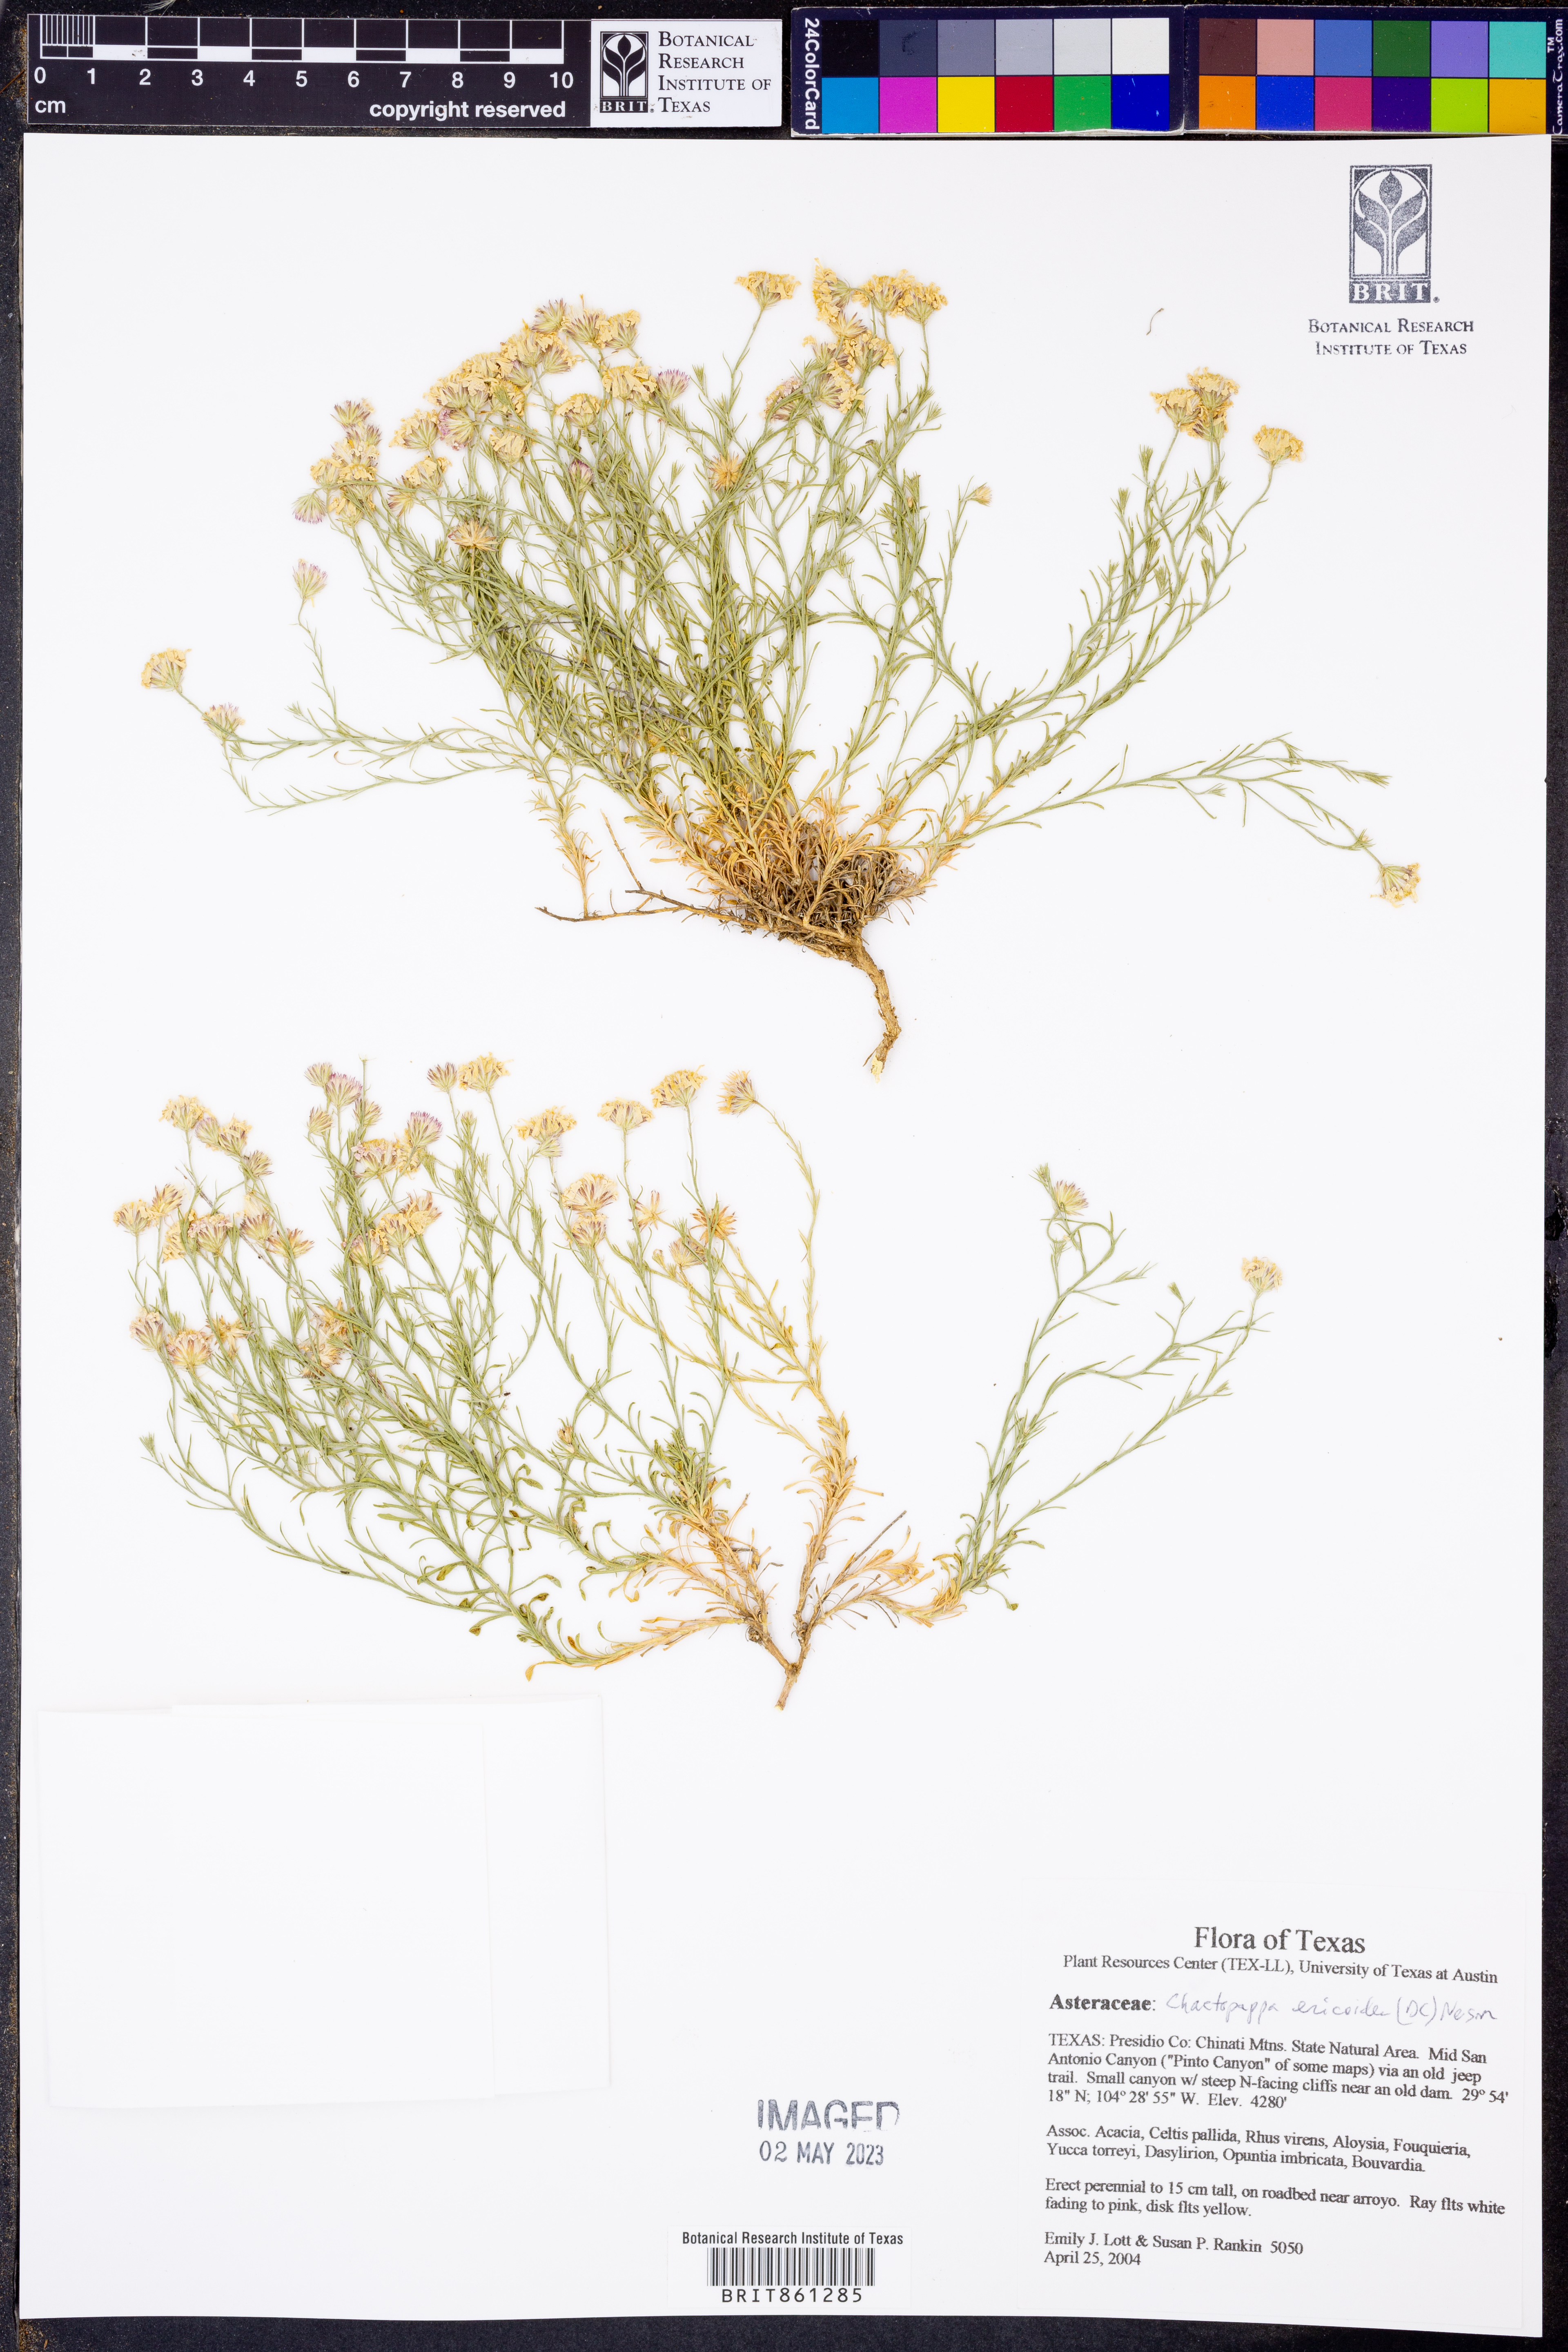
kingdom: Plantae
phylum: Tracheophyta
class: Magnoliopsida
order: Asterales
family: Asteraceae
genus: Chaetopappa
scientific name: Chaetopappa ericoides
